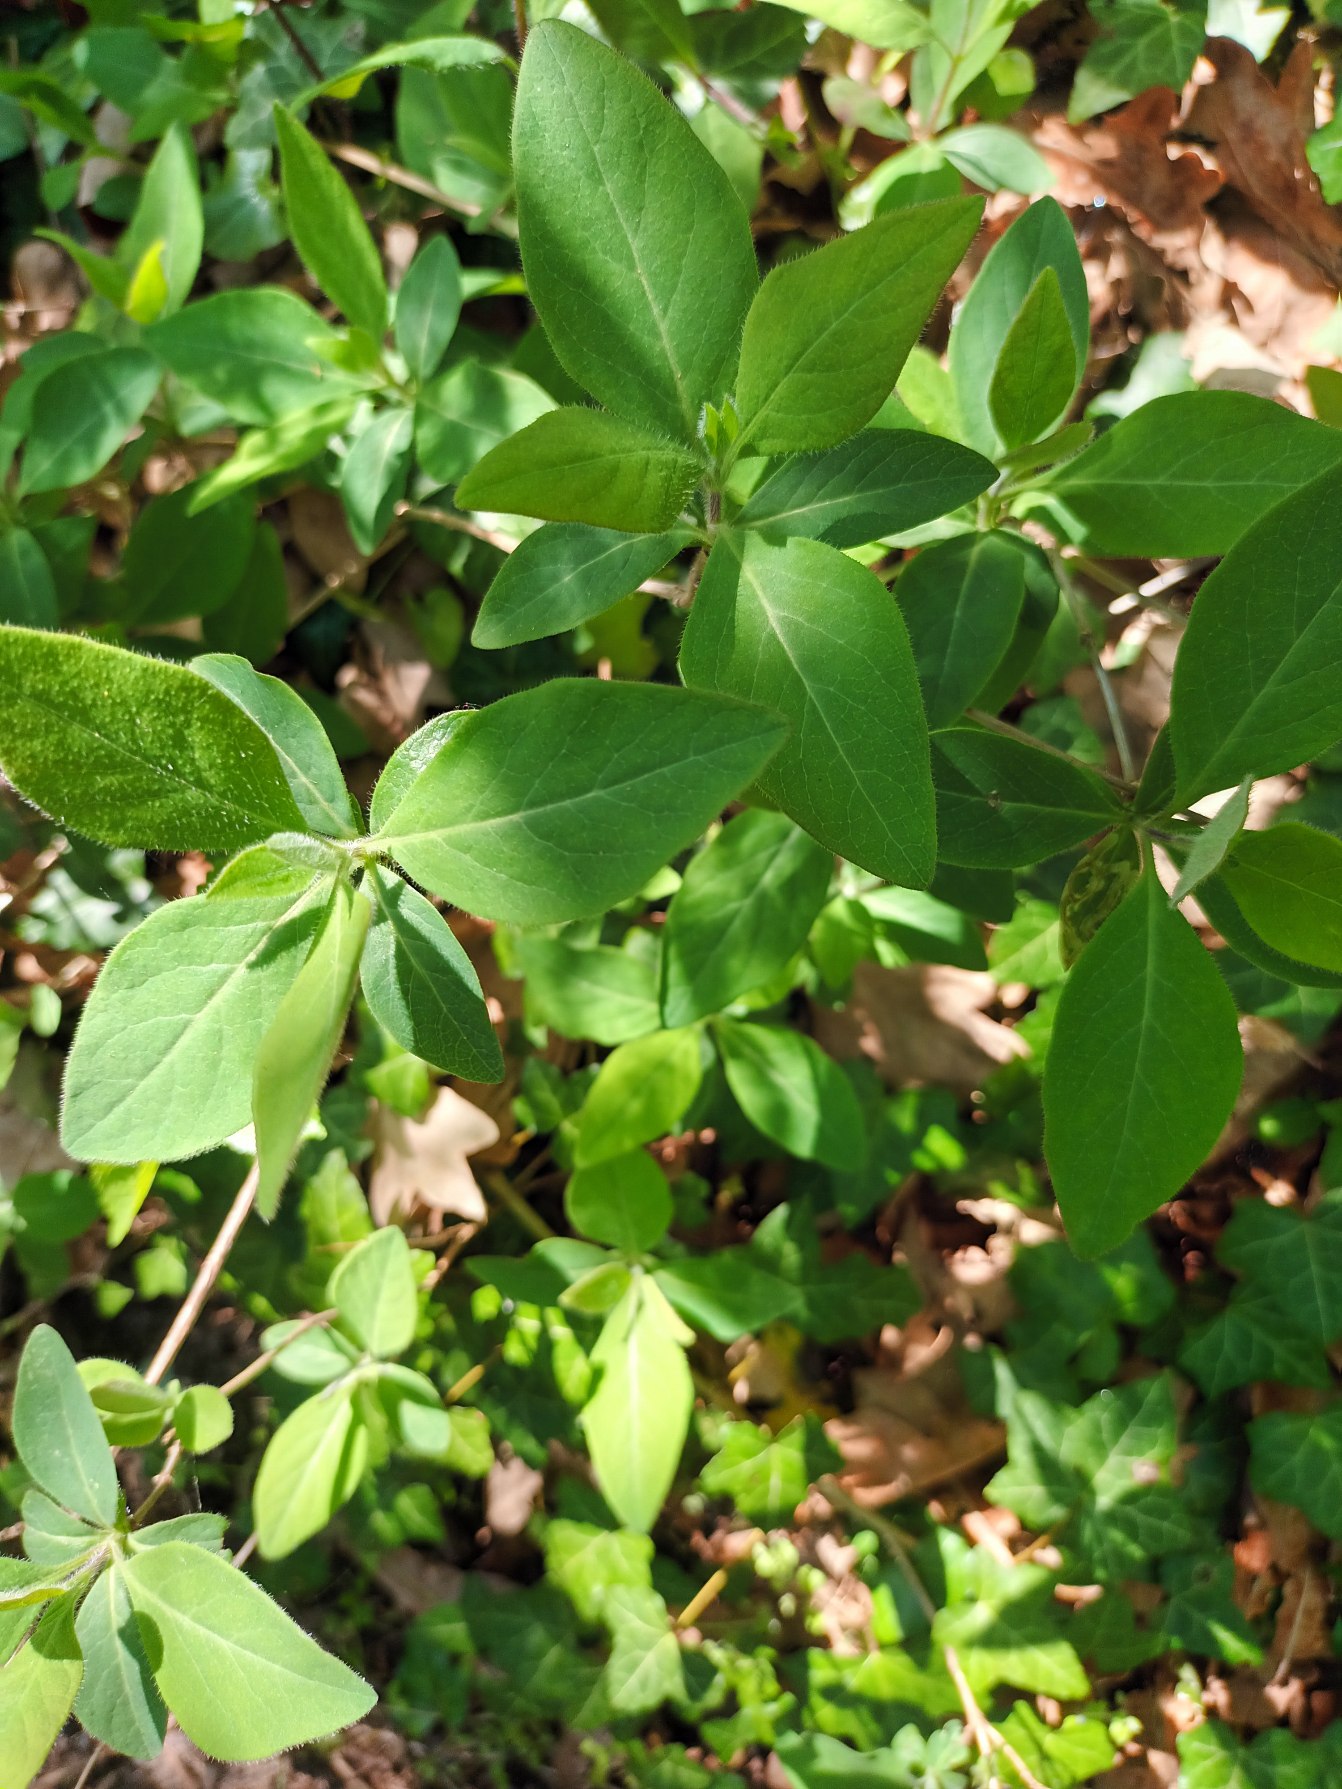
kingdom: Plantae
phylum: Tracheophyta
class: Magnoliopsida
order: Dipsacales
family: Caprifoliaceae
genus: Lonicera
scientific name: Lonicera periclymenum
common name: Almindelig gedeblad
